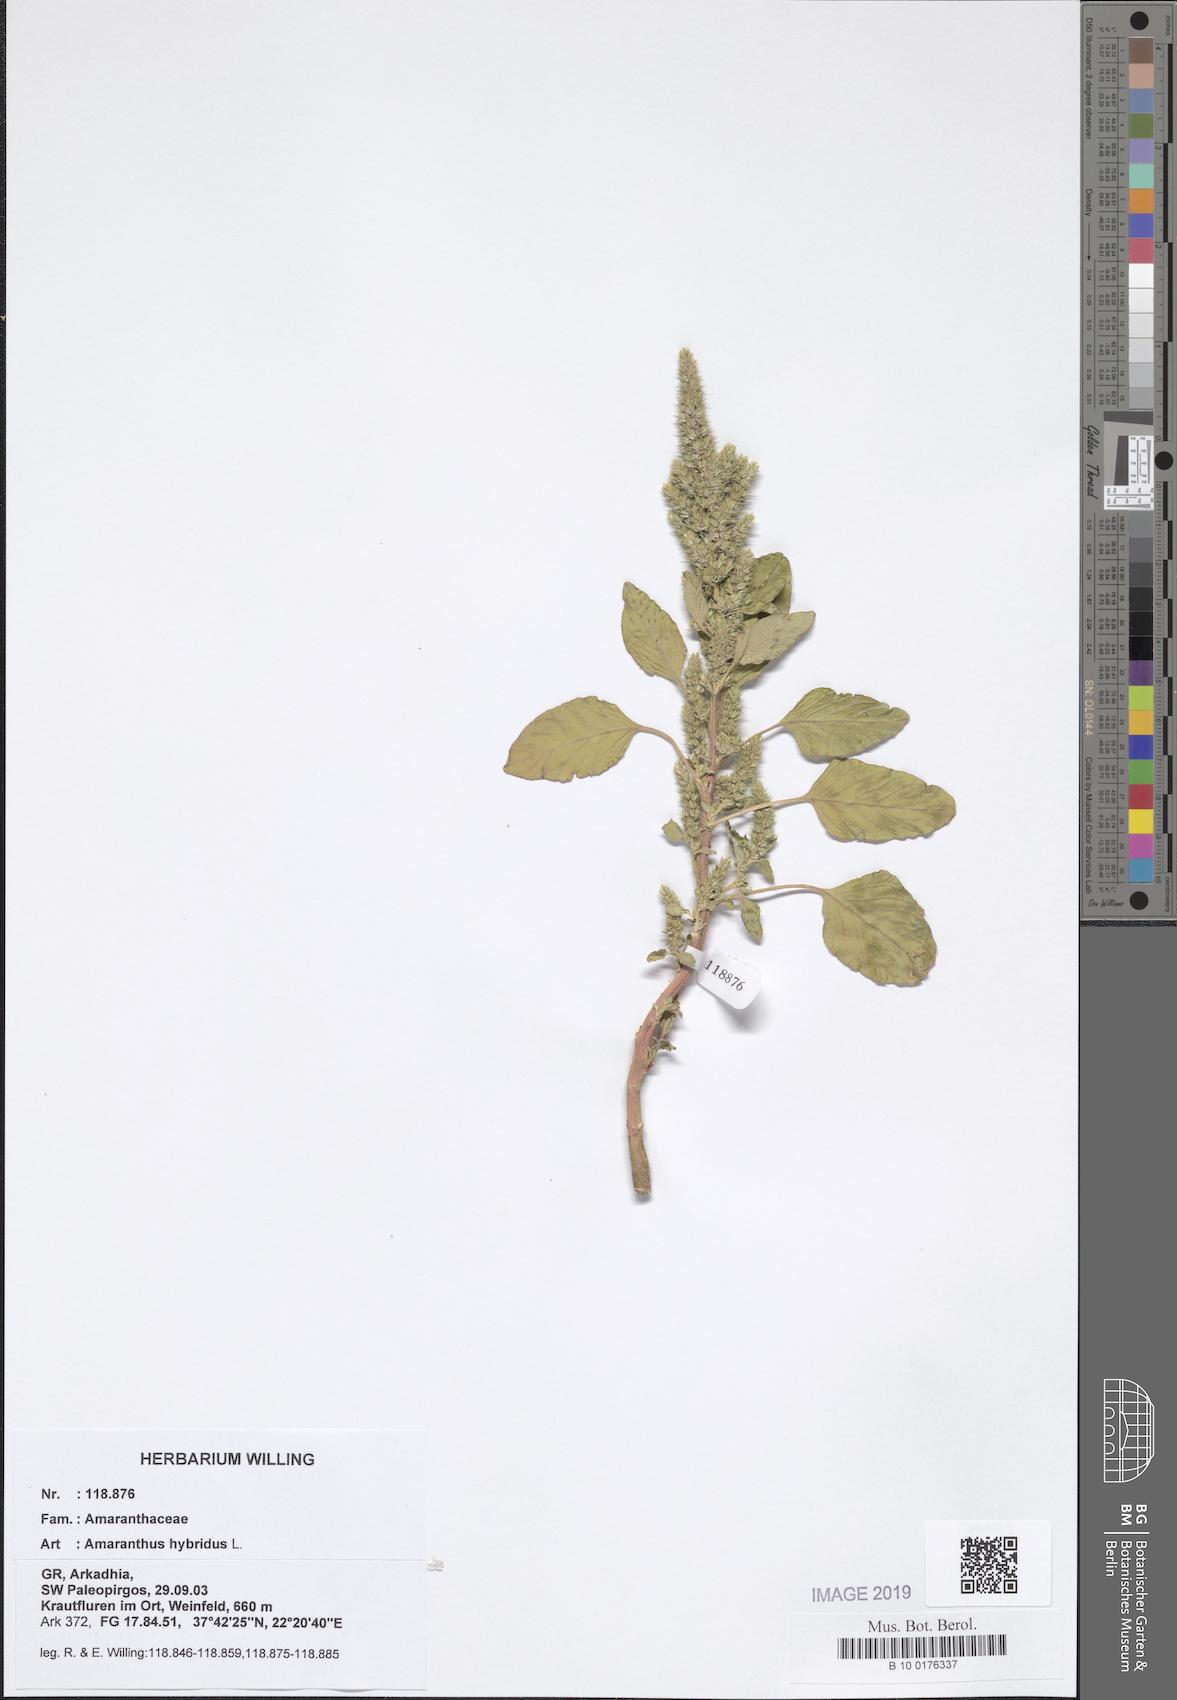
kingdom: Plantae
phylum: Tracheophyta
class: Magnoliopsida
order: Caryophyllales
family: Amaranthaceae
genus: Amaranthus
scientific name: Amaranthus hybridus
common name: Green amaranth
